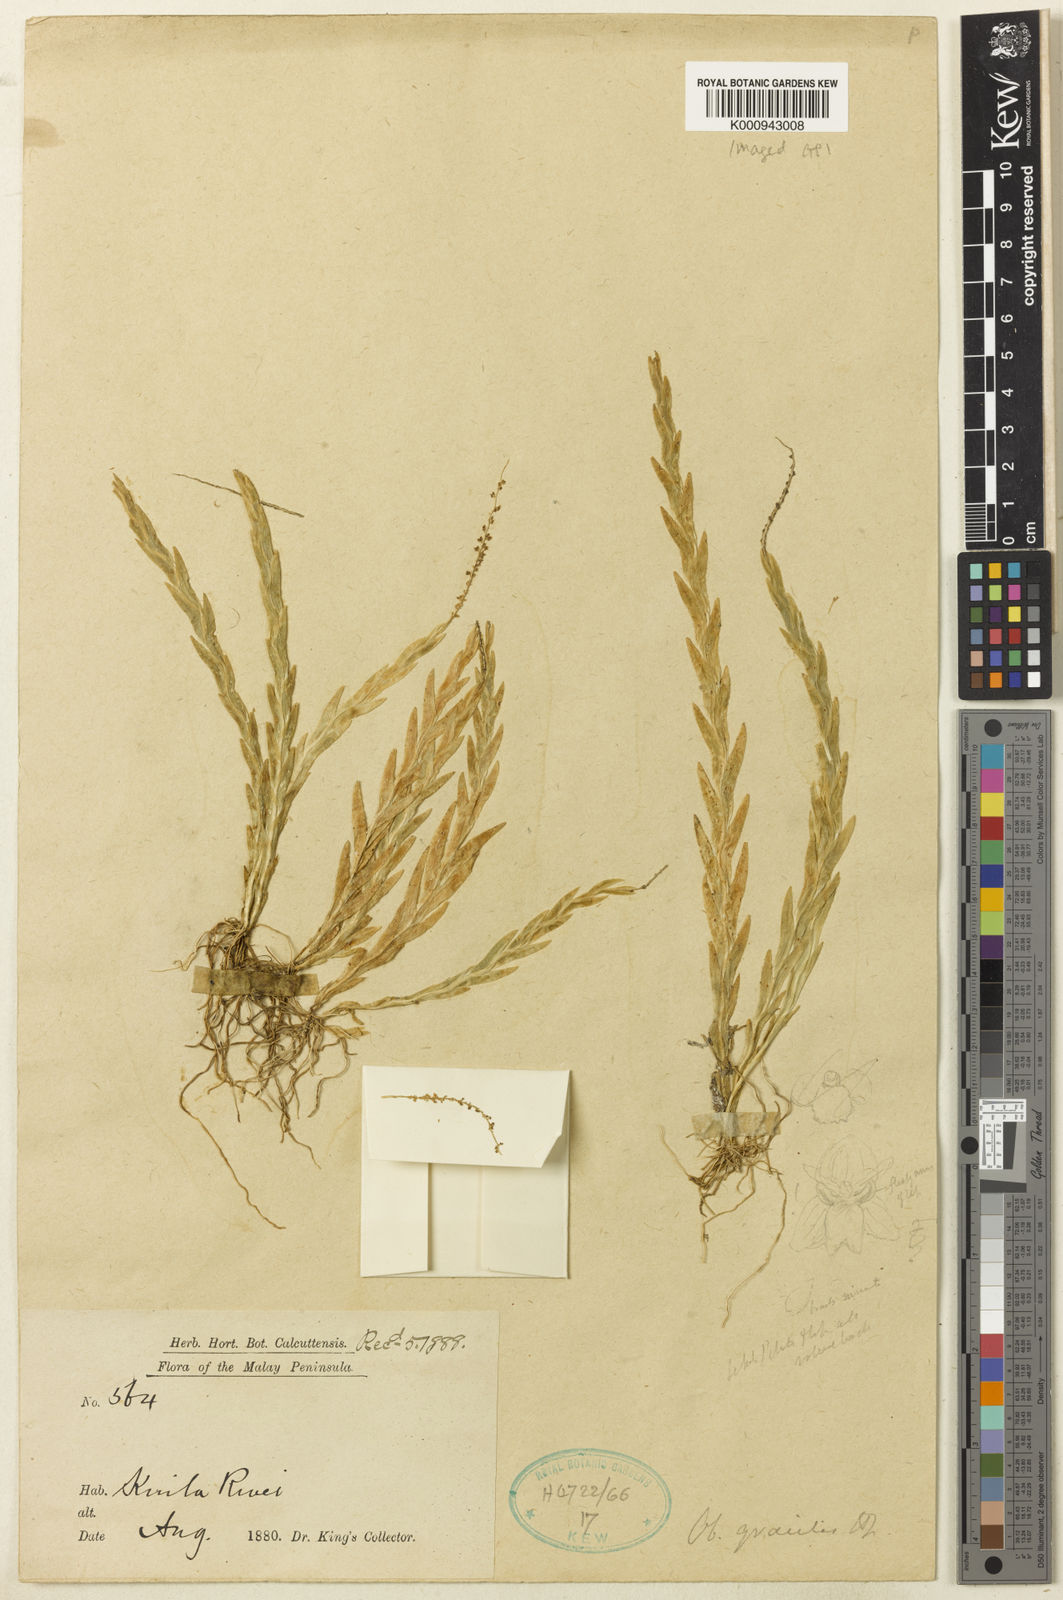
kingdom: Plantae
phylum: Tracheophyta
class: Liliopsida
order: Asparagales
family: Orchidaceae
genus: Oberonia
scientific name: Oberonia gracilis
